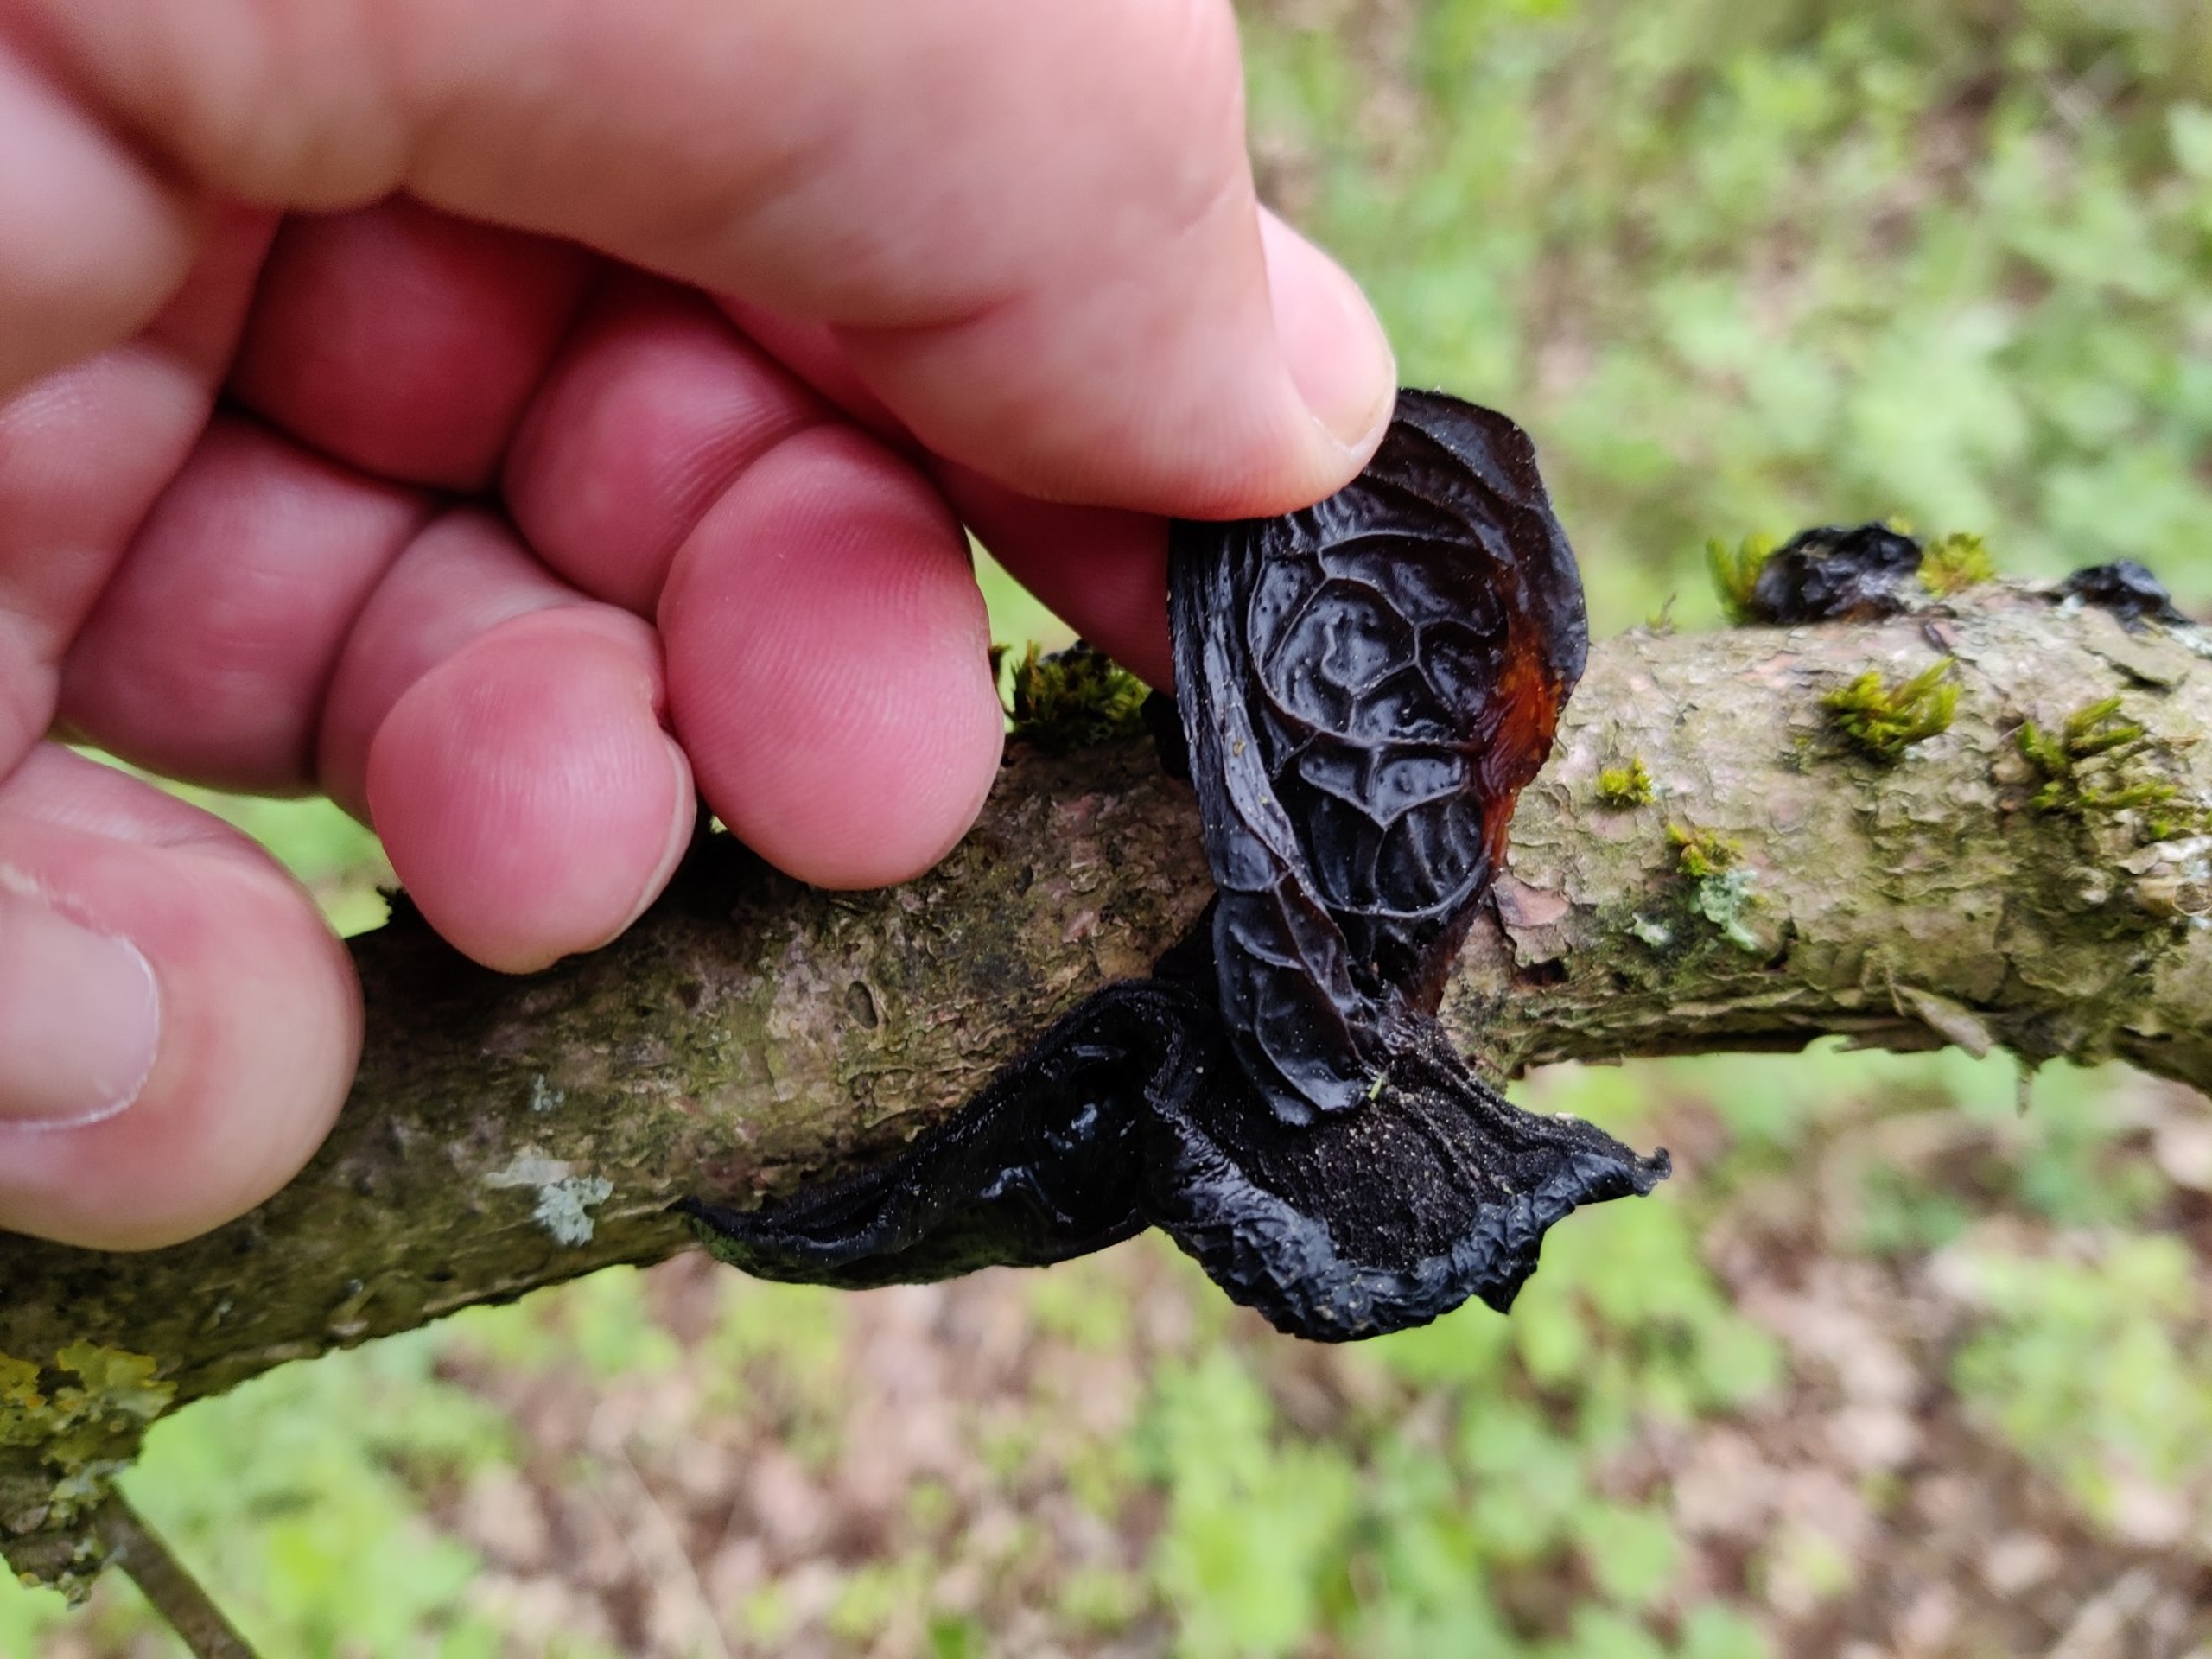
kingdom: Fungi
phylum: Basidiomycota
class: Agaricomycetes
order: Auriculariales
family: Auriculariaceae
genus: Exidia
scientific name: Exidia glandulosa
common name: Ege-bævretop
